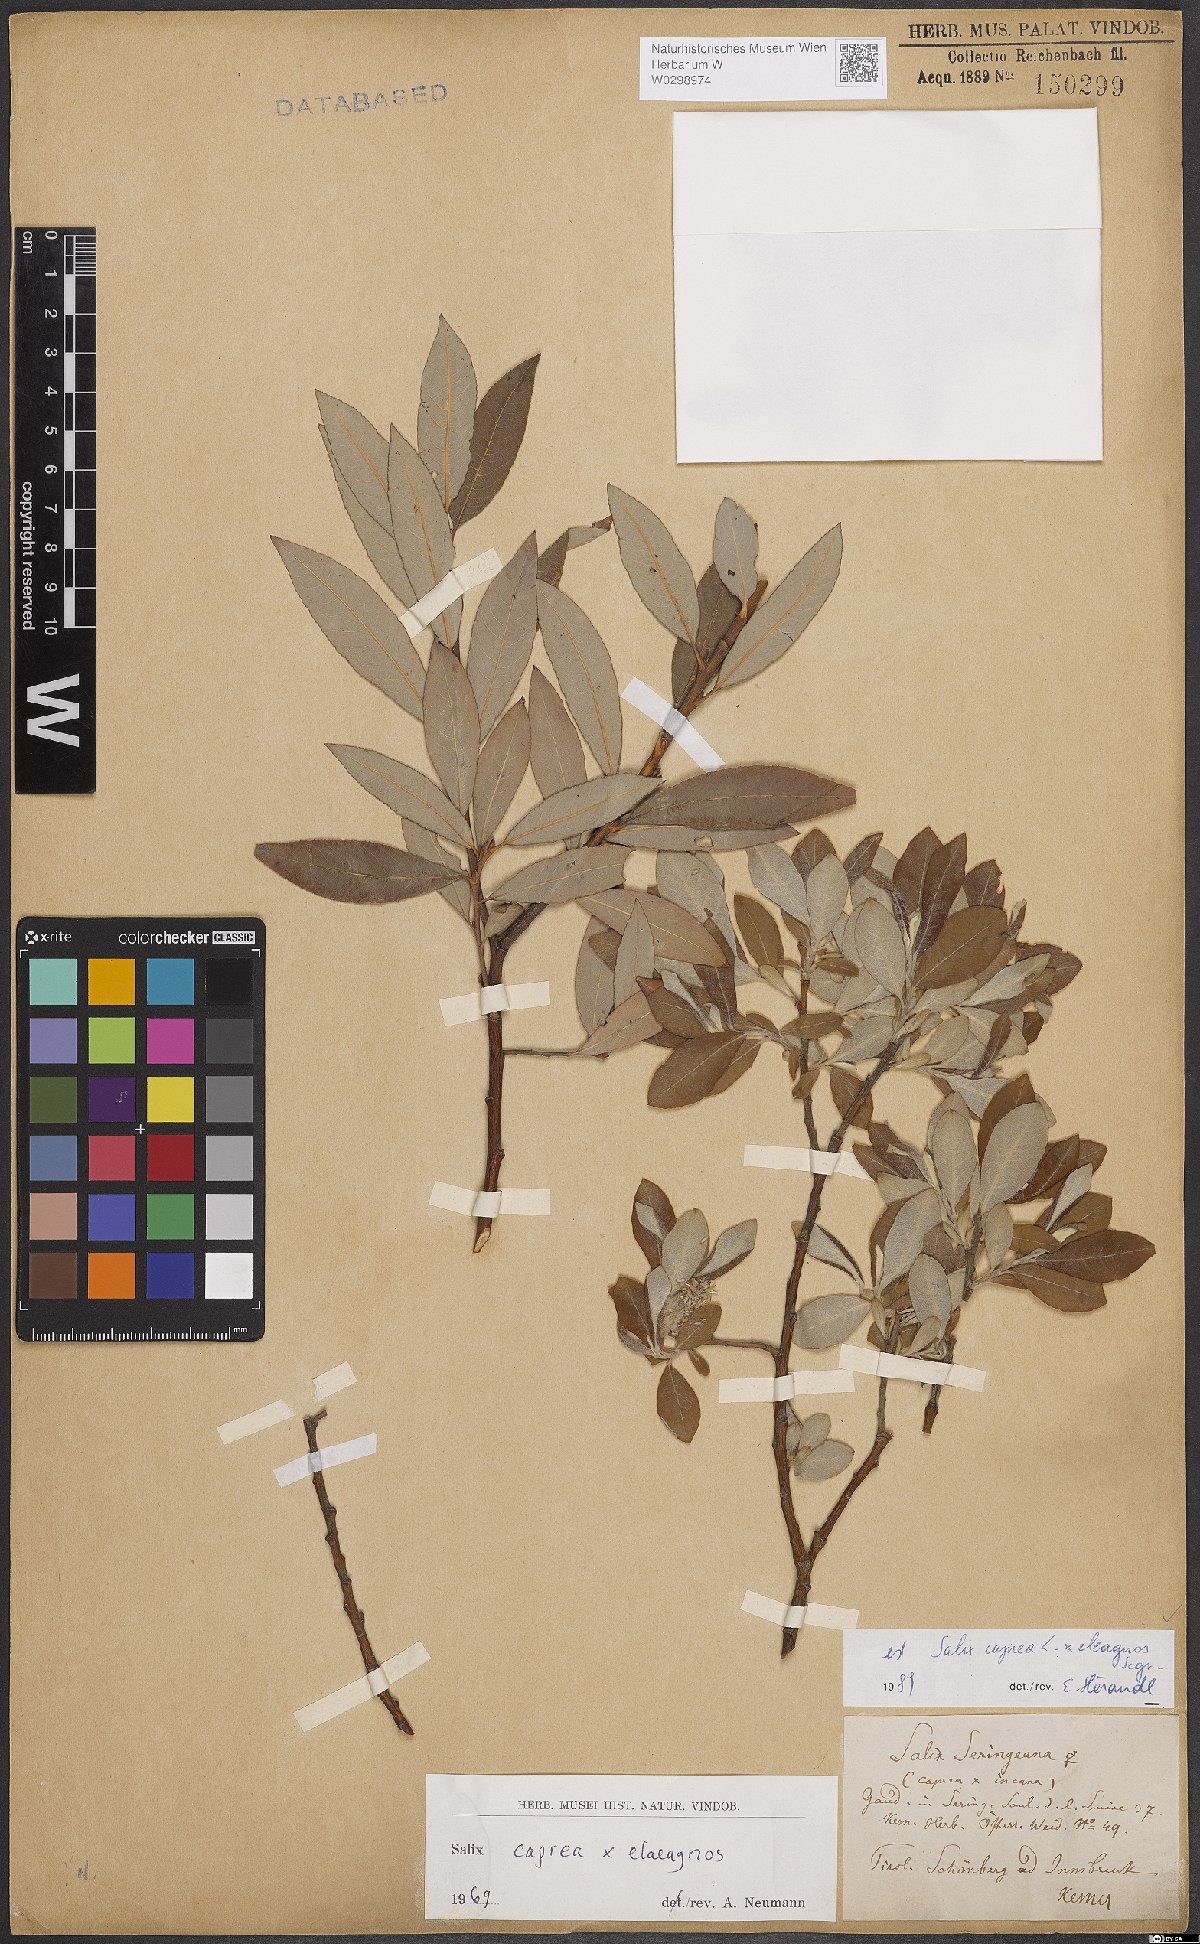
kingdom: Plantae
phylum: Tracheophyta
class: Magnoliopsida
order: Malpighiales
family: Salicaceae
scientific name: Salicaceae
